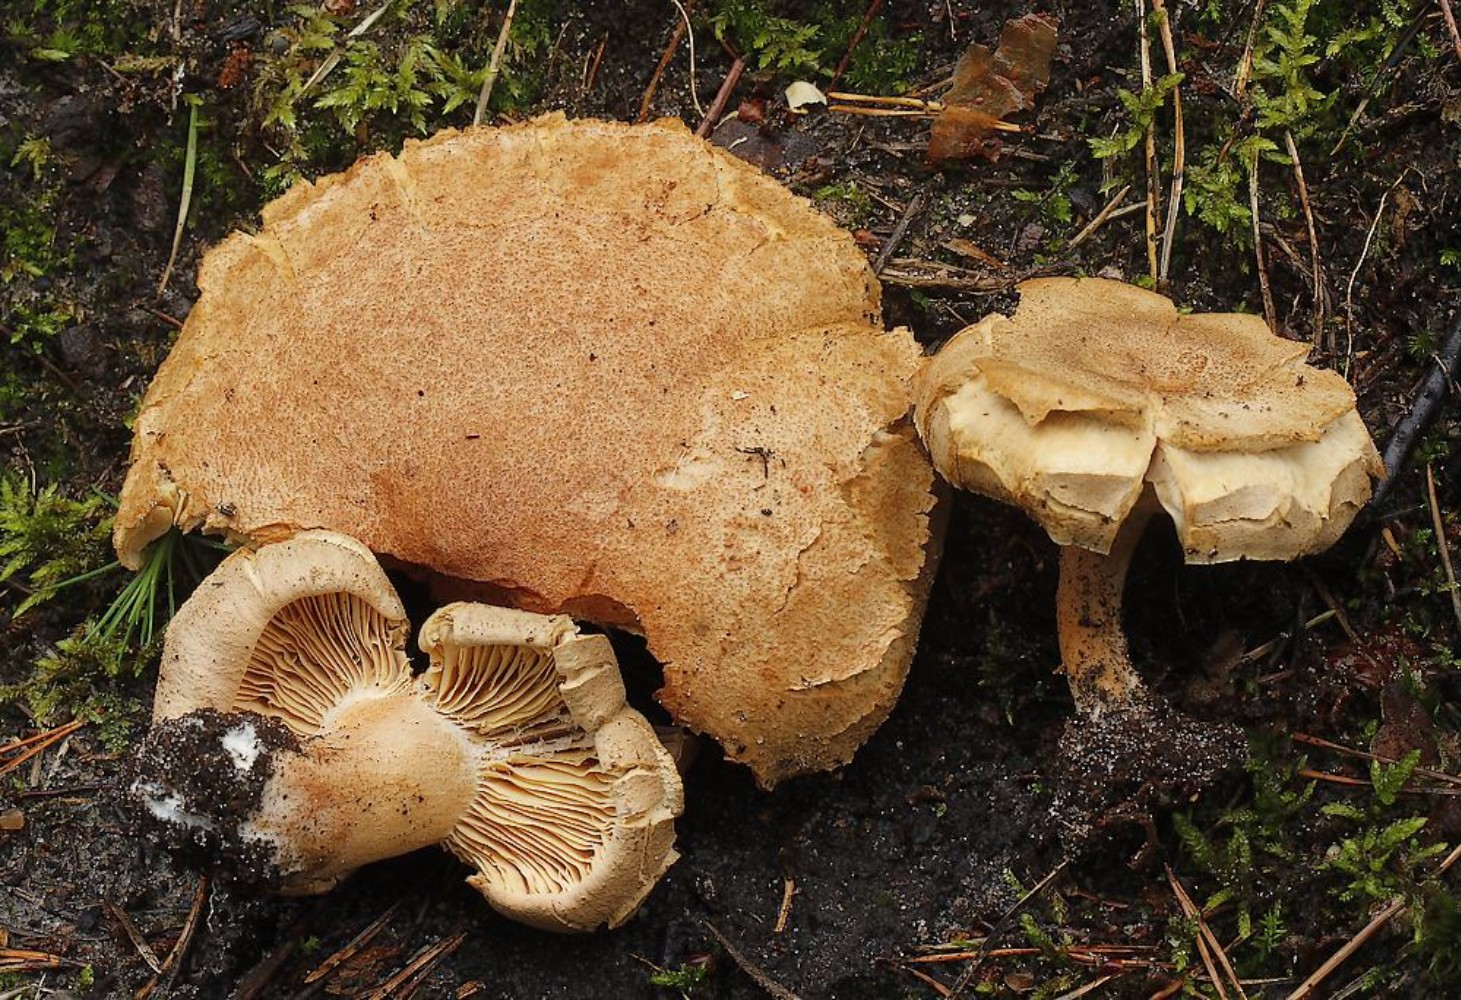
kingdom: Fungi
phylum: Basidiomycota
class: Agaricomycetes
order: Russulales
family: Russulaceae
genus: Lactarius
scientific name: Lactarius helvus
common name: mose-mælkehat
